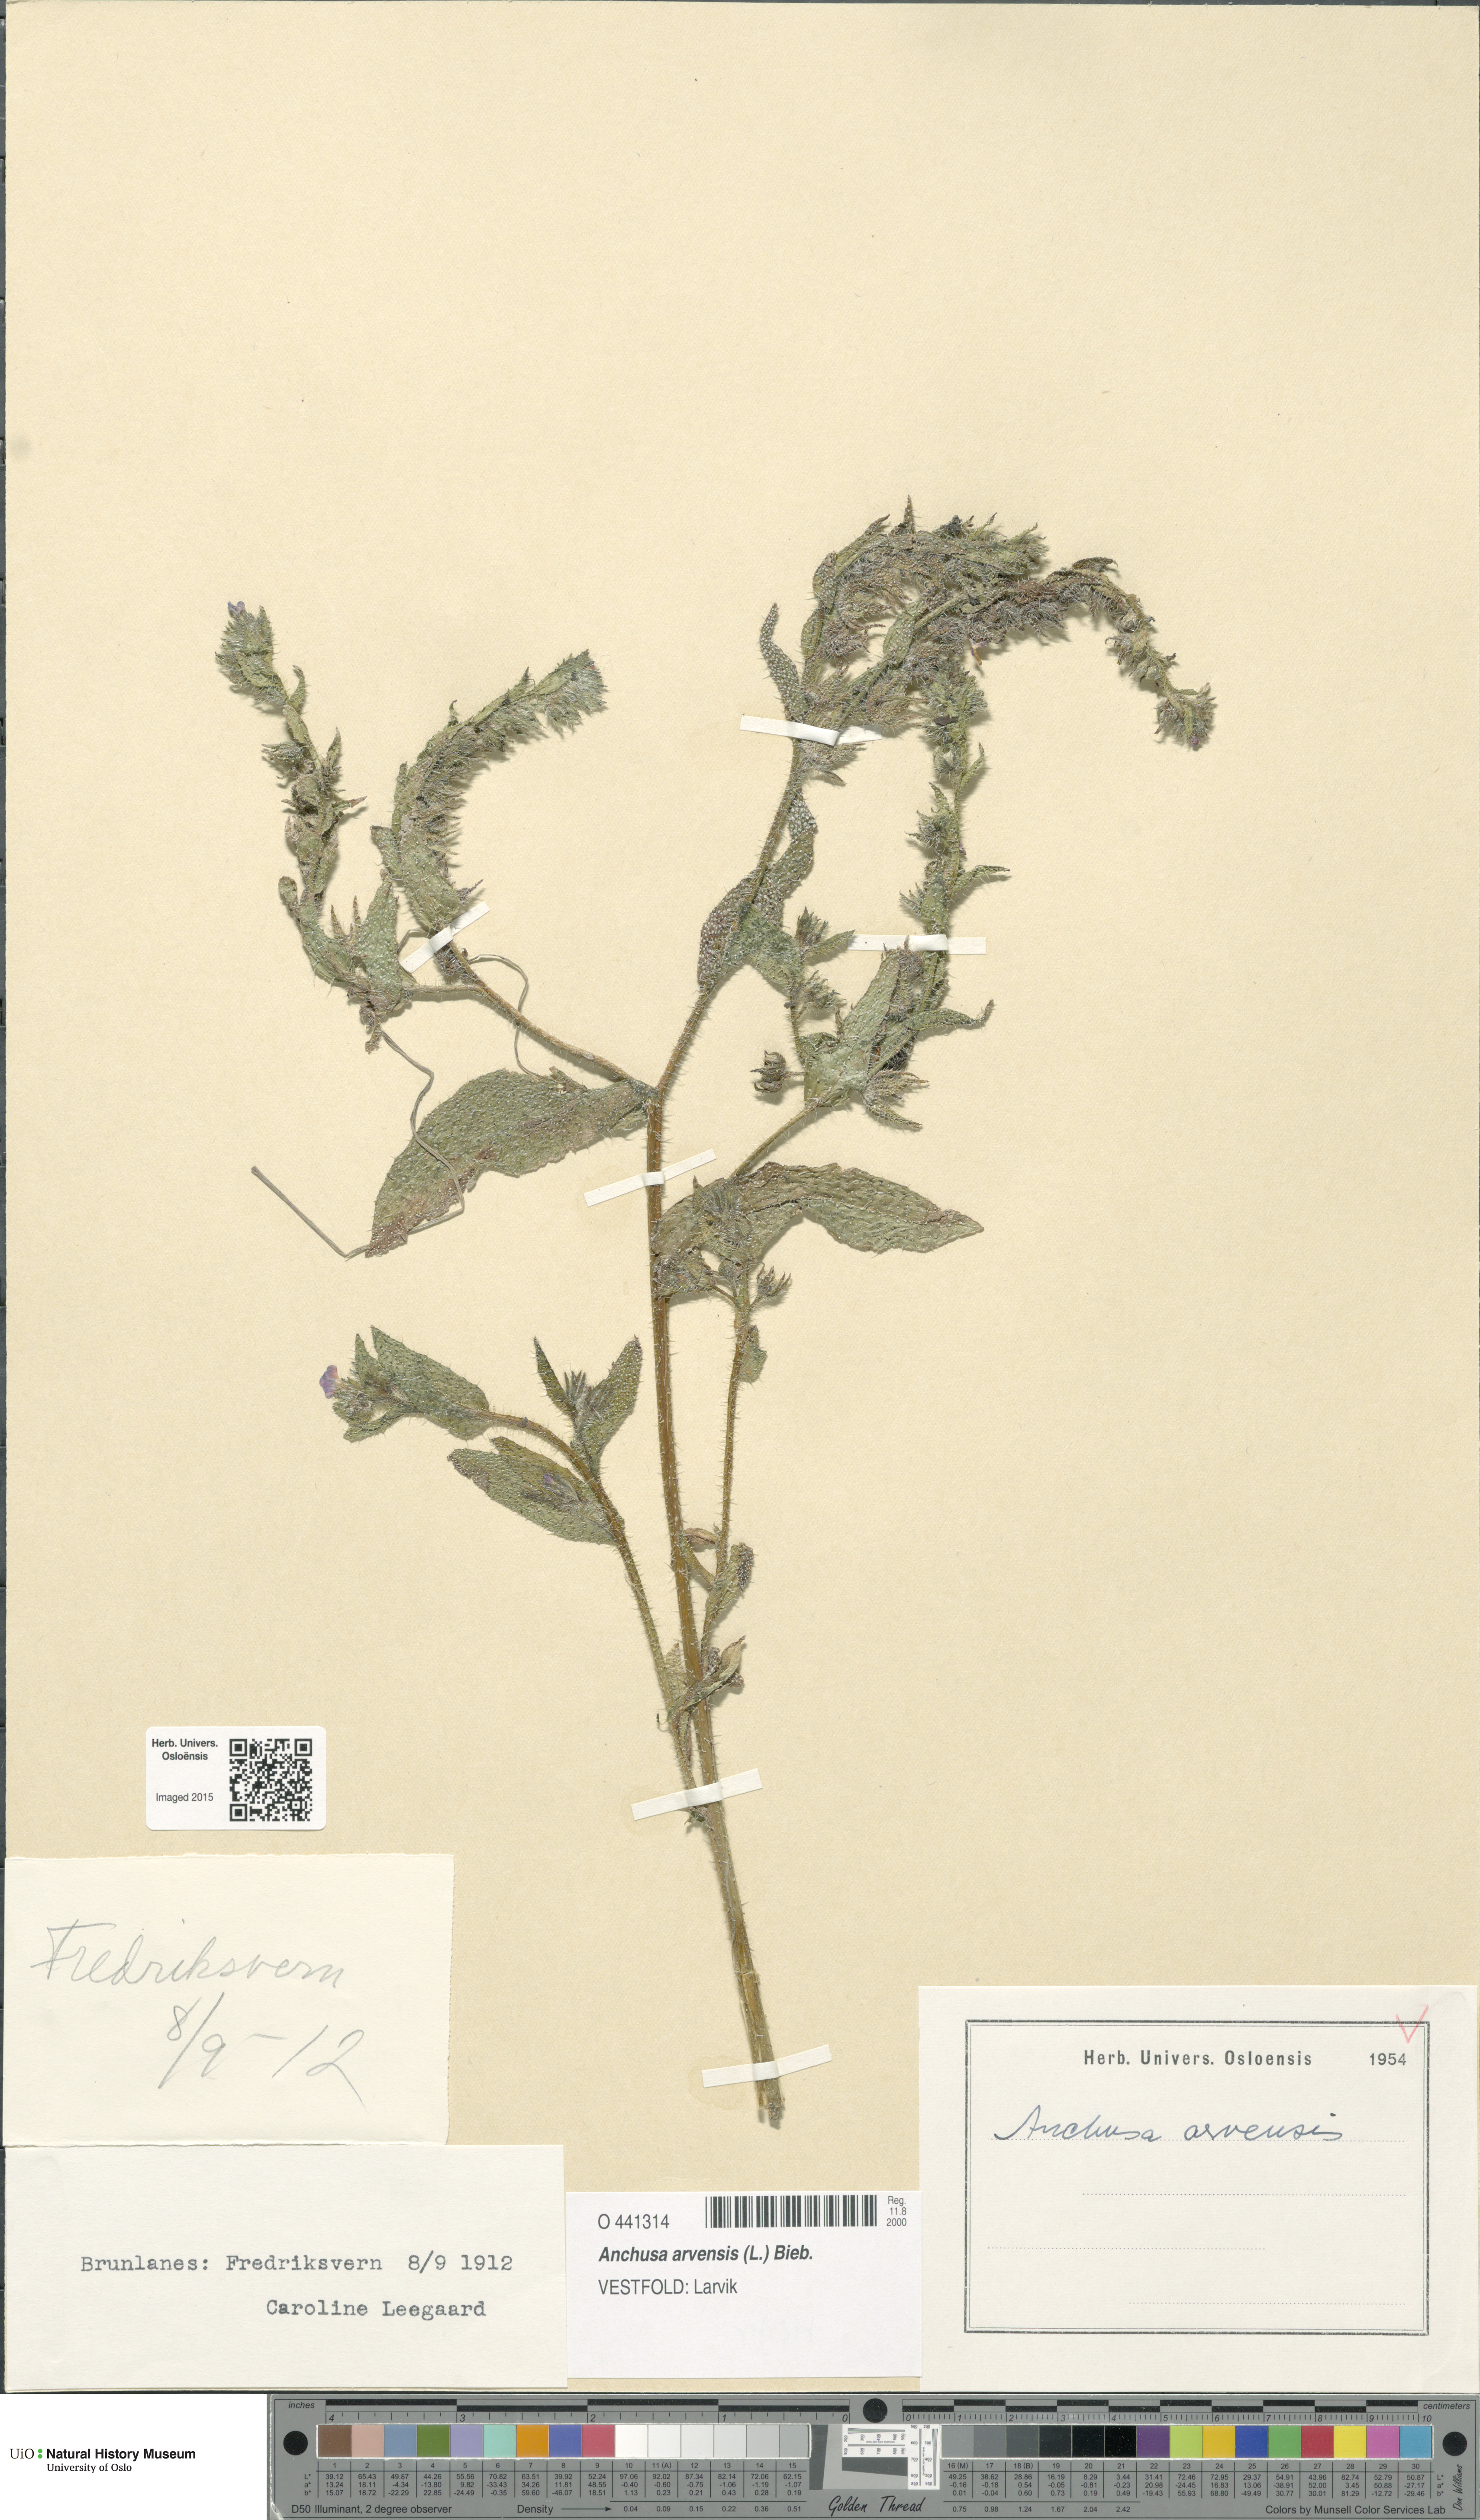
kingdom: Plantae
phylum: Tracheophyta
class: Magnoliopsida
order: Boraginales
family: Boraginaceae
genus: Lycopsis
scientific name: Lycopsis arvensis
